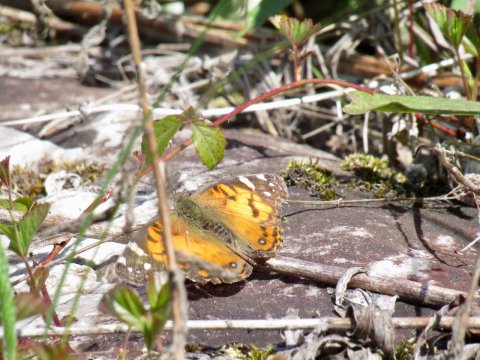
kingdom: Animalia
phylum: Arthropoda
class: Insecta
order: Lepidoptera
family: Nymphalidae
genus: Vanessa
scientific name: Vanessa virginiensis
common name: American Lady
